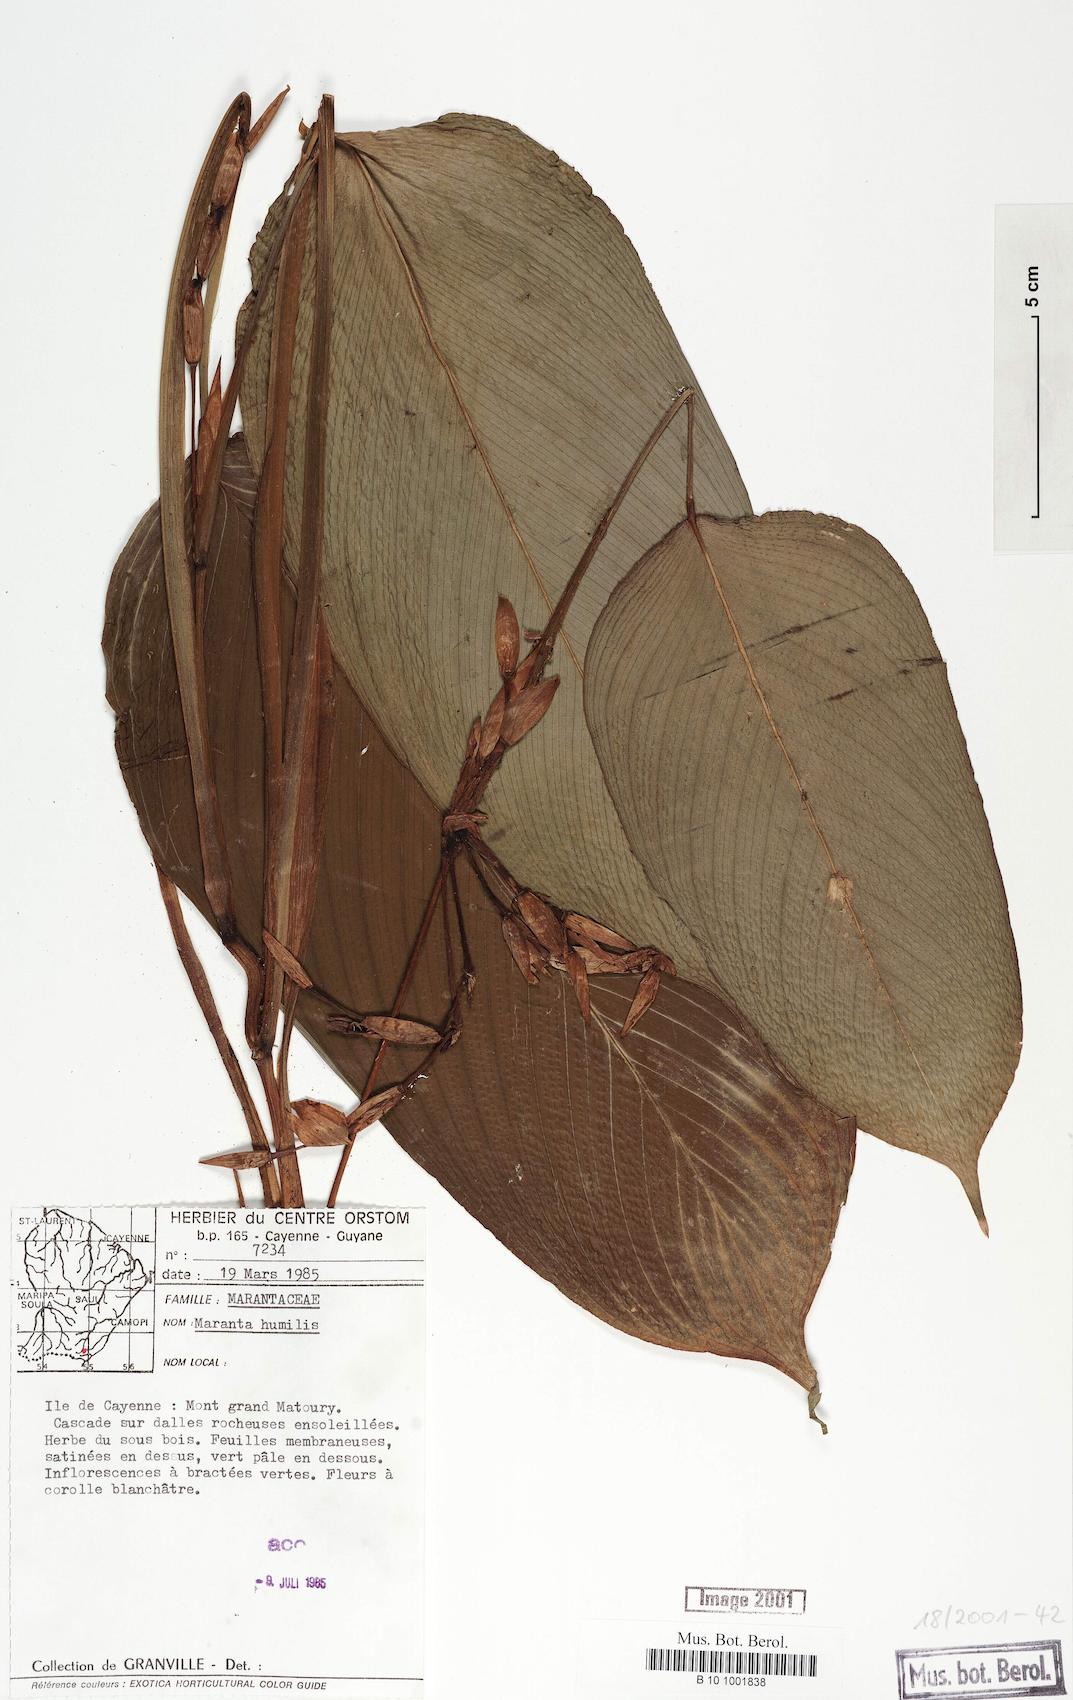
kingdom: Plantae
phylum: Tracheophyta
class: Liliopsida
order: Zingiberales
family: Marantaceae
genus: Maranta
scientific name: Maranta humilis
